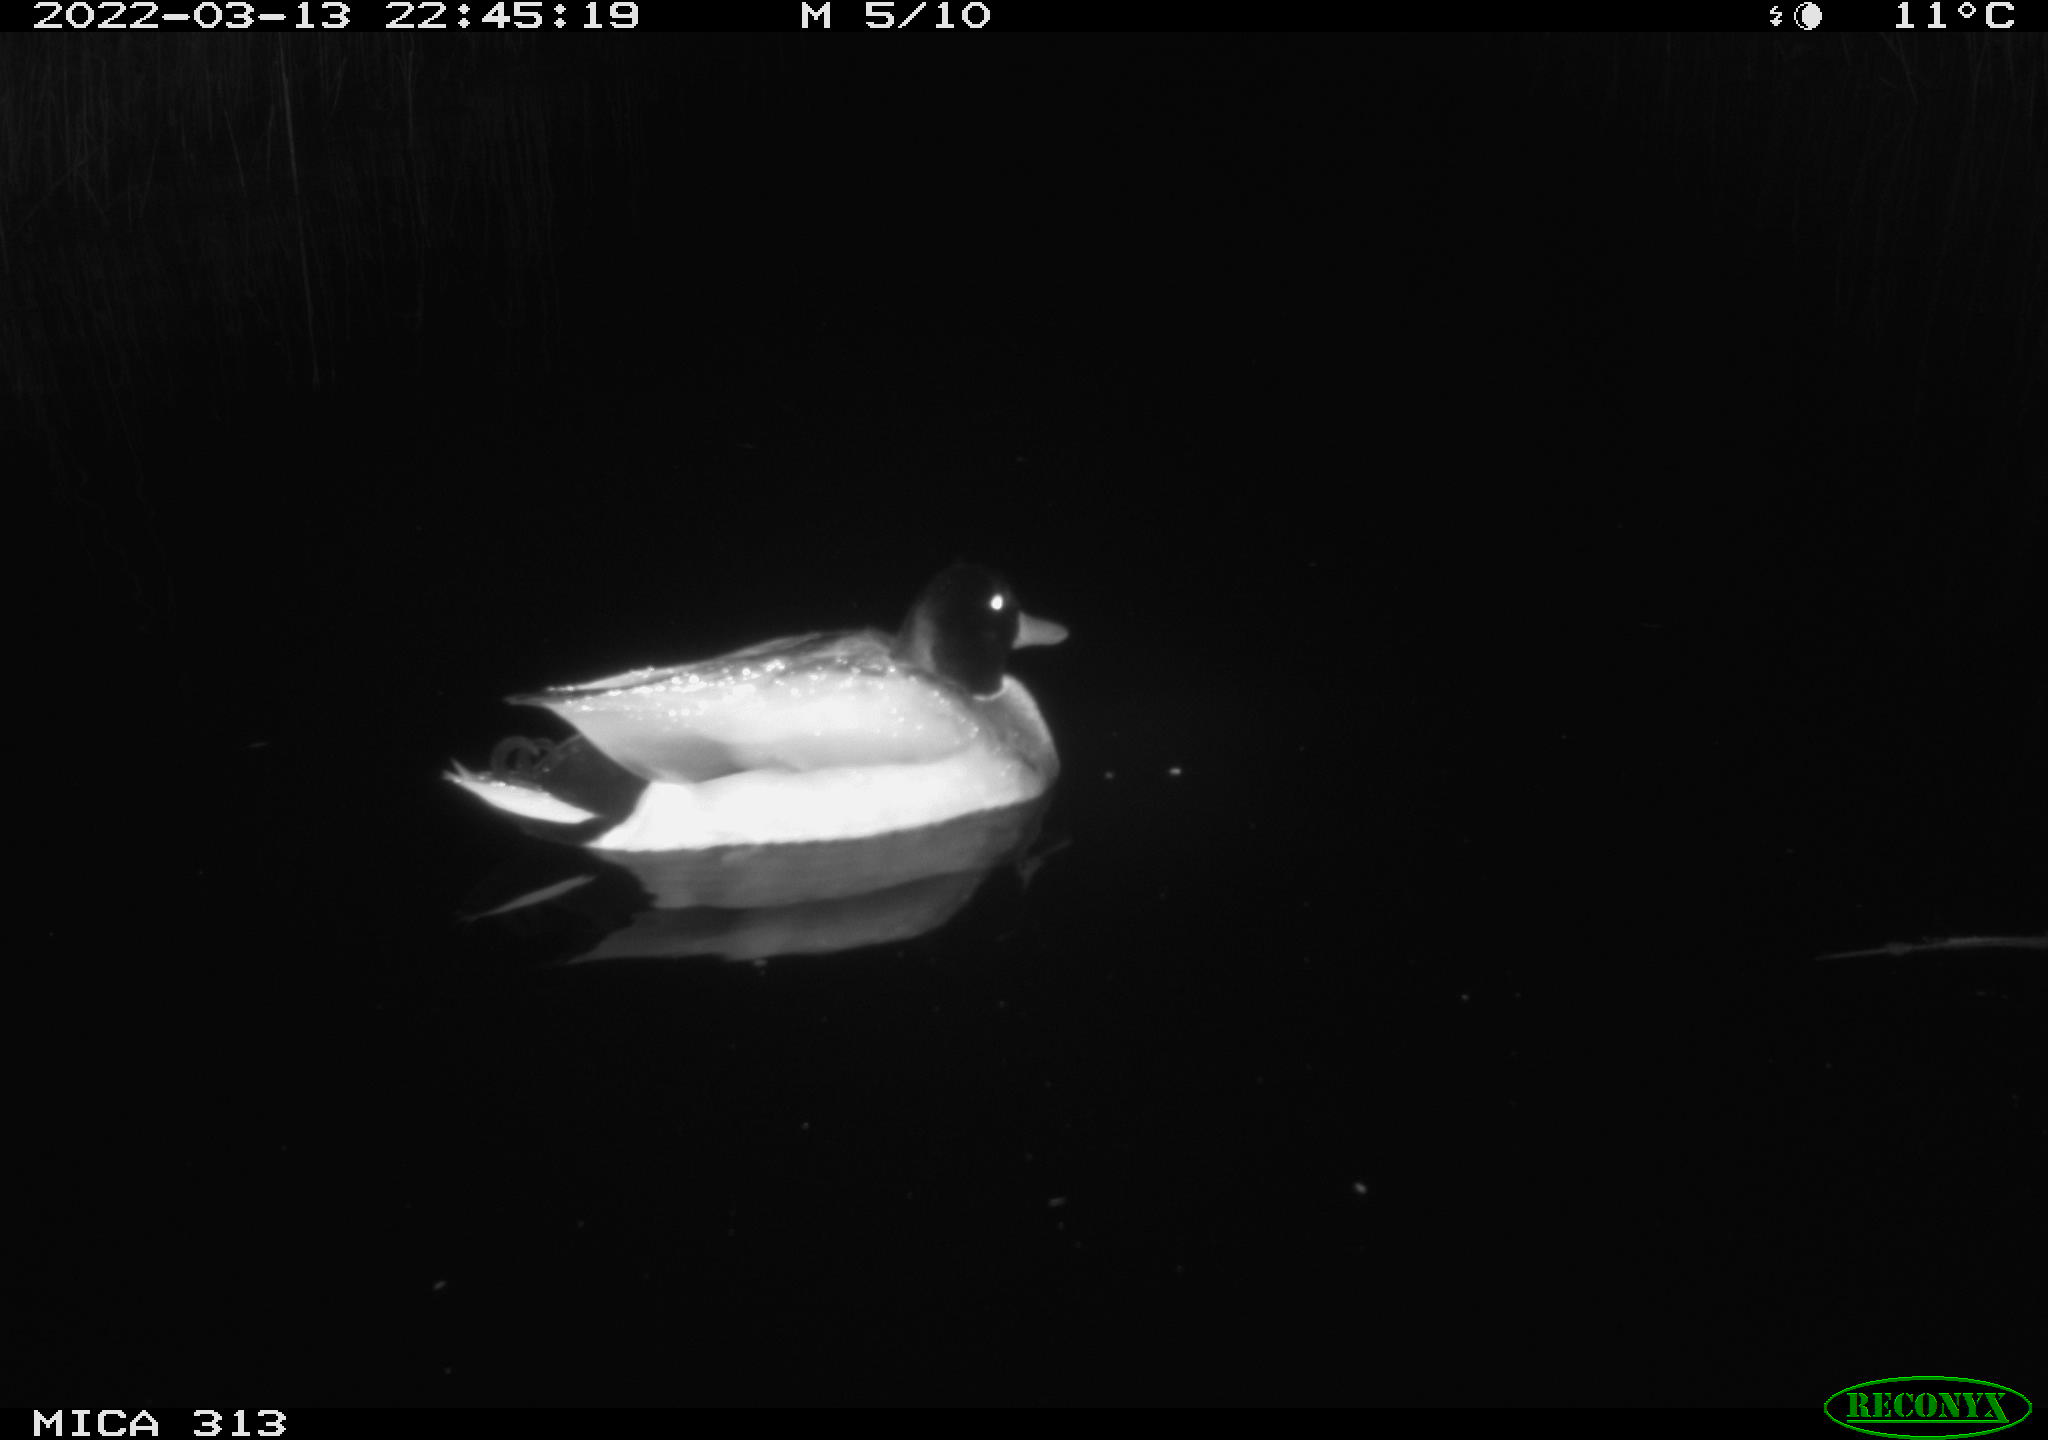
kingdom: Animalia
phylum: Chordata
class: Aves
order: Anseriformes
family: Anatidae
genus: Anas
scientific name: Anas platyrhynchos
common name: Mallard
